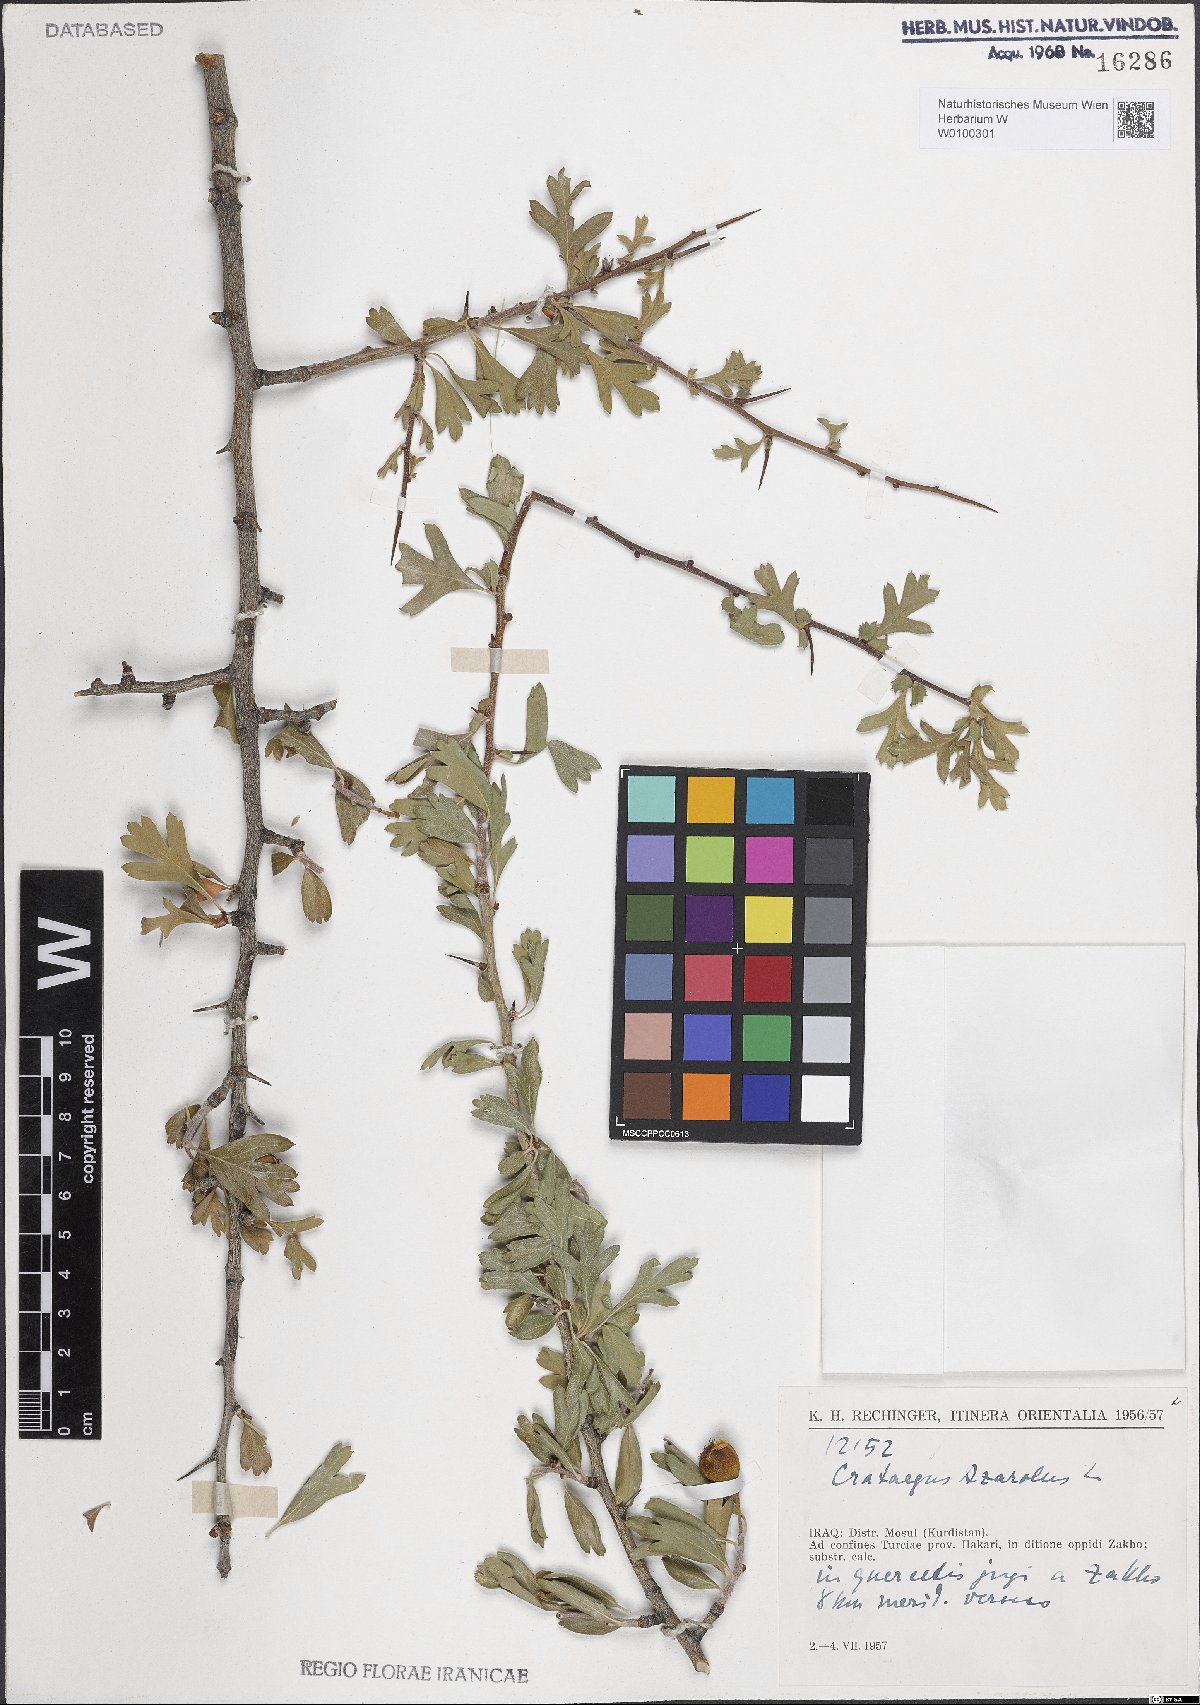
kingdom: Plantae
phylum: Tracheophyta
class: Magnoliopsida
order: Rosales
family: Rosaceae
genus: Crataegus
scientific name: Crataegus azarolus
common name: Azarole
